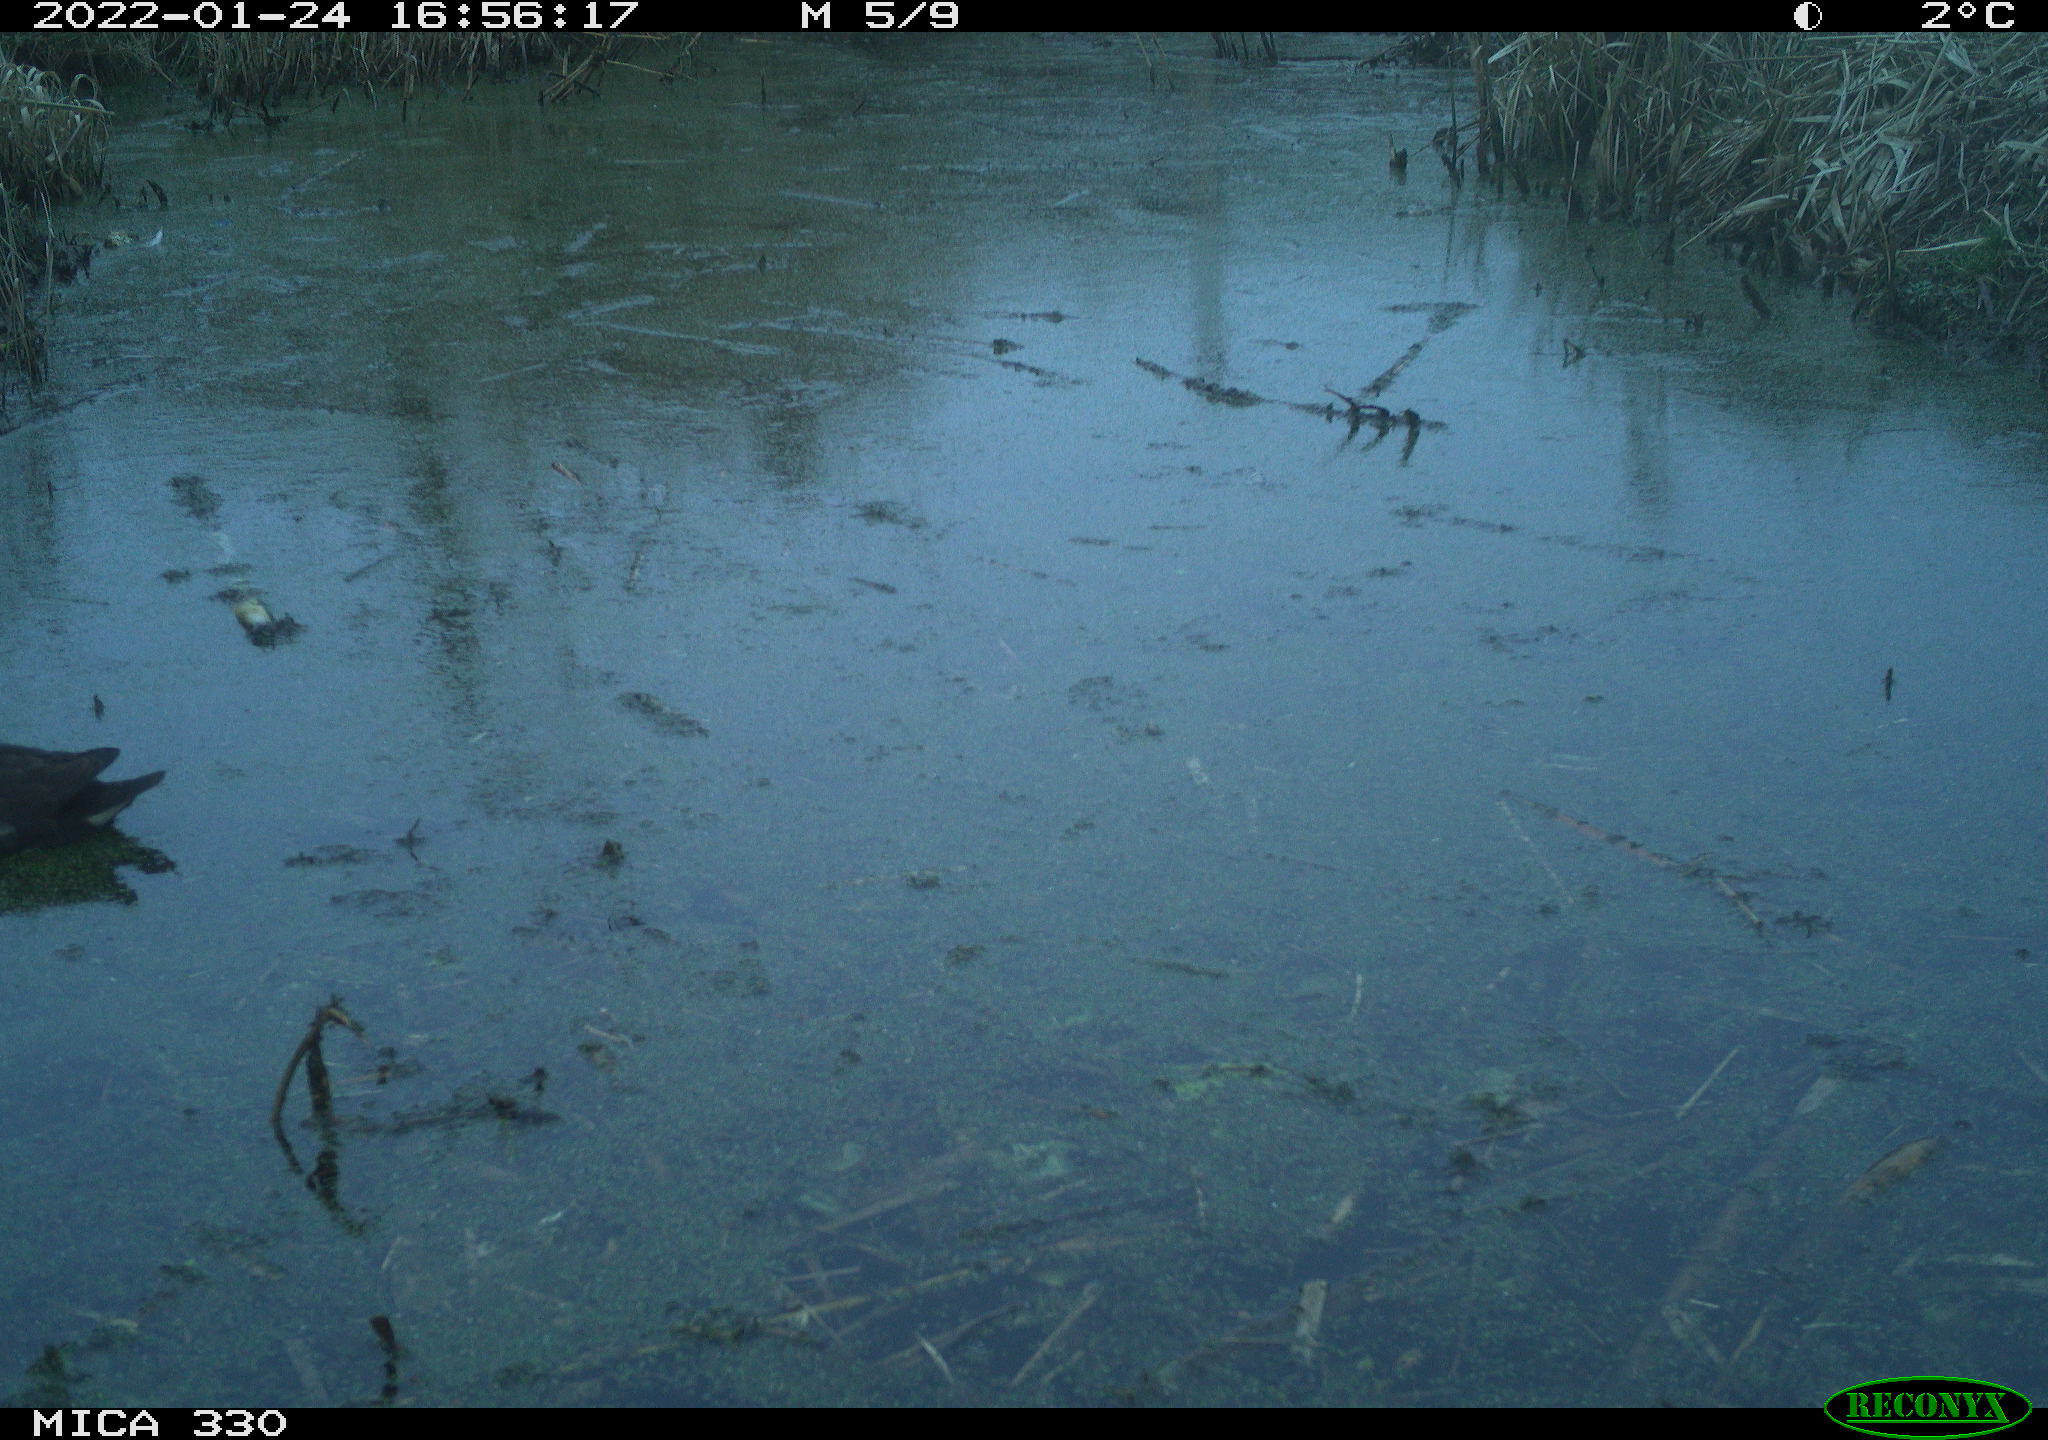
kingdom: Animalia
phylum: Chordata
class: Aves
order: Gruiformes
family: Rallidae
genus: Gallinula
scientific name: Gallinula chloropus
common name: Common moorhen
